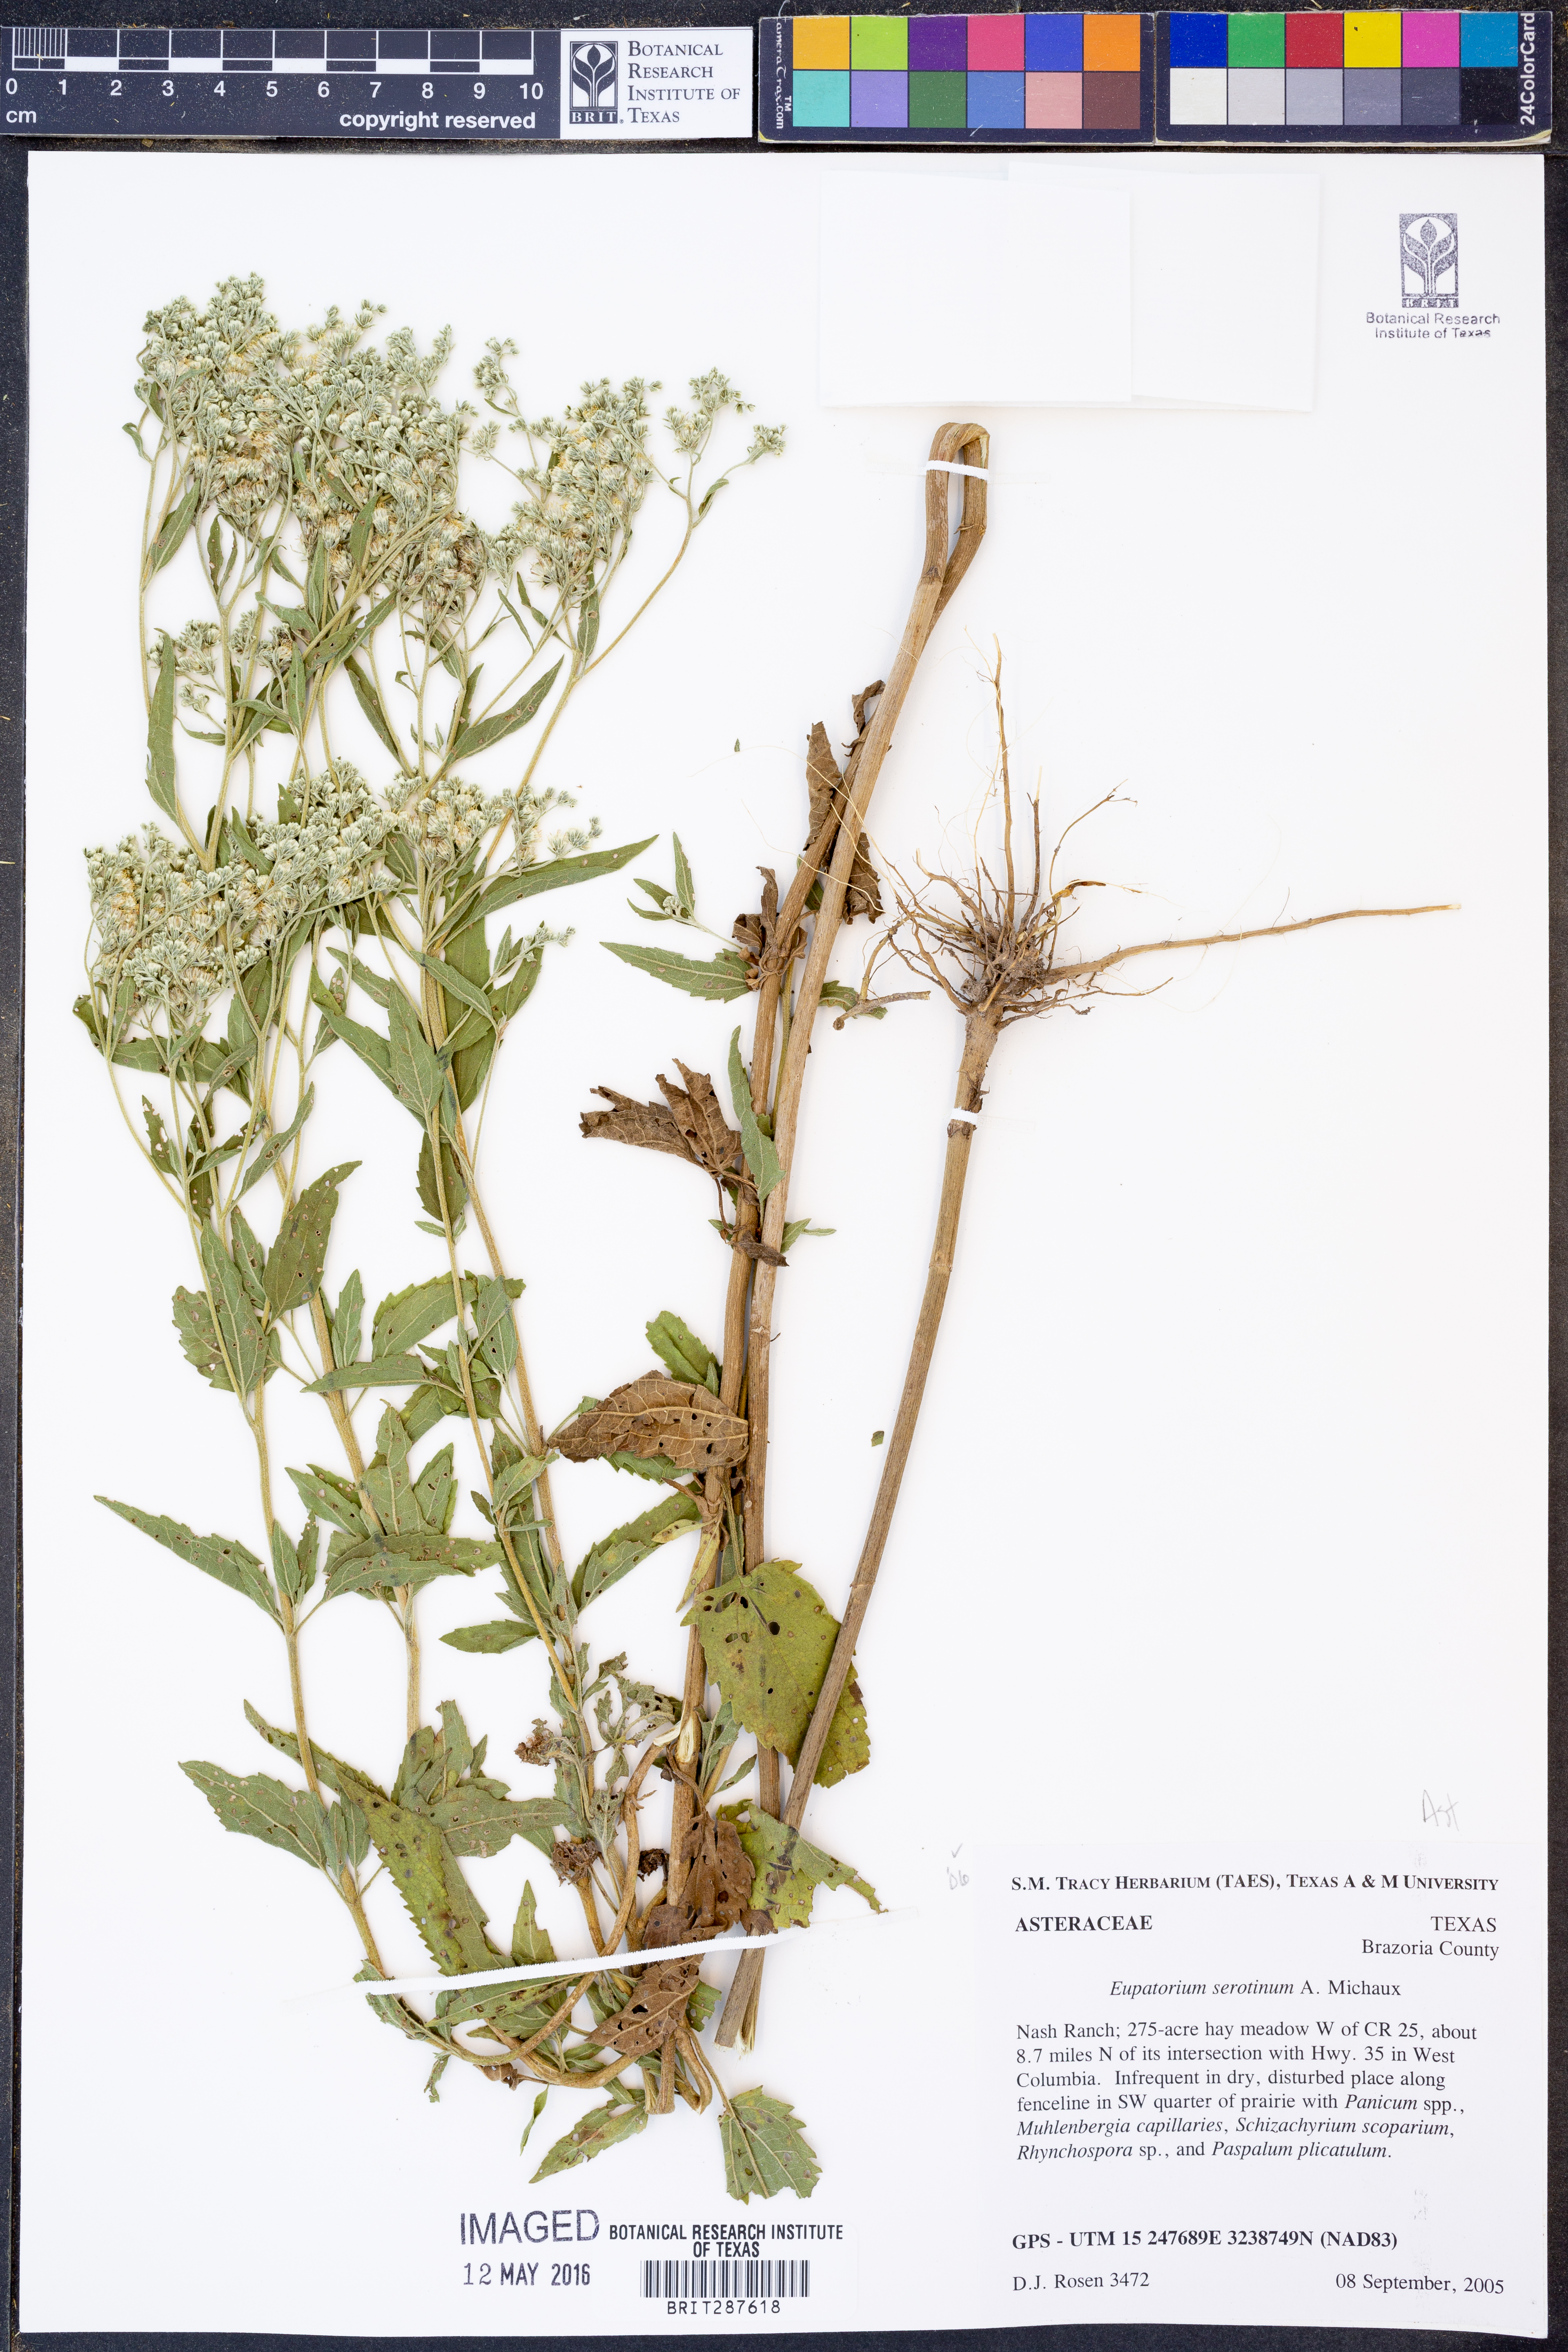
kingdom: Plantae
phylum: Tracheophyta
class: Magnoliopsida
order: Asterales
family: Asteraceae
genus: Eupatorium
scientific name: Eupatorium serotinum
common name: Late boneset
